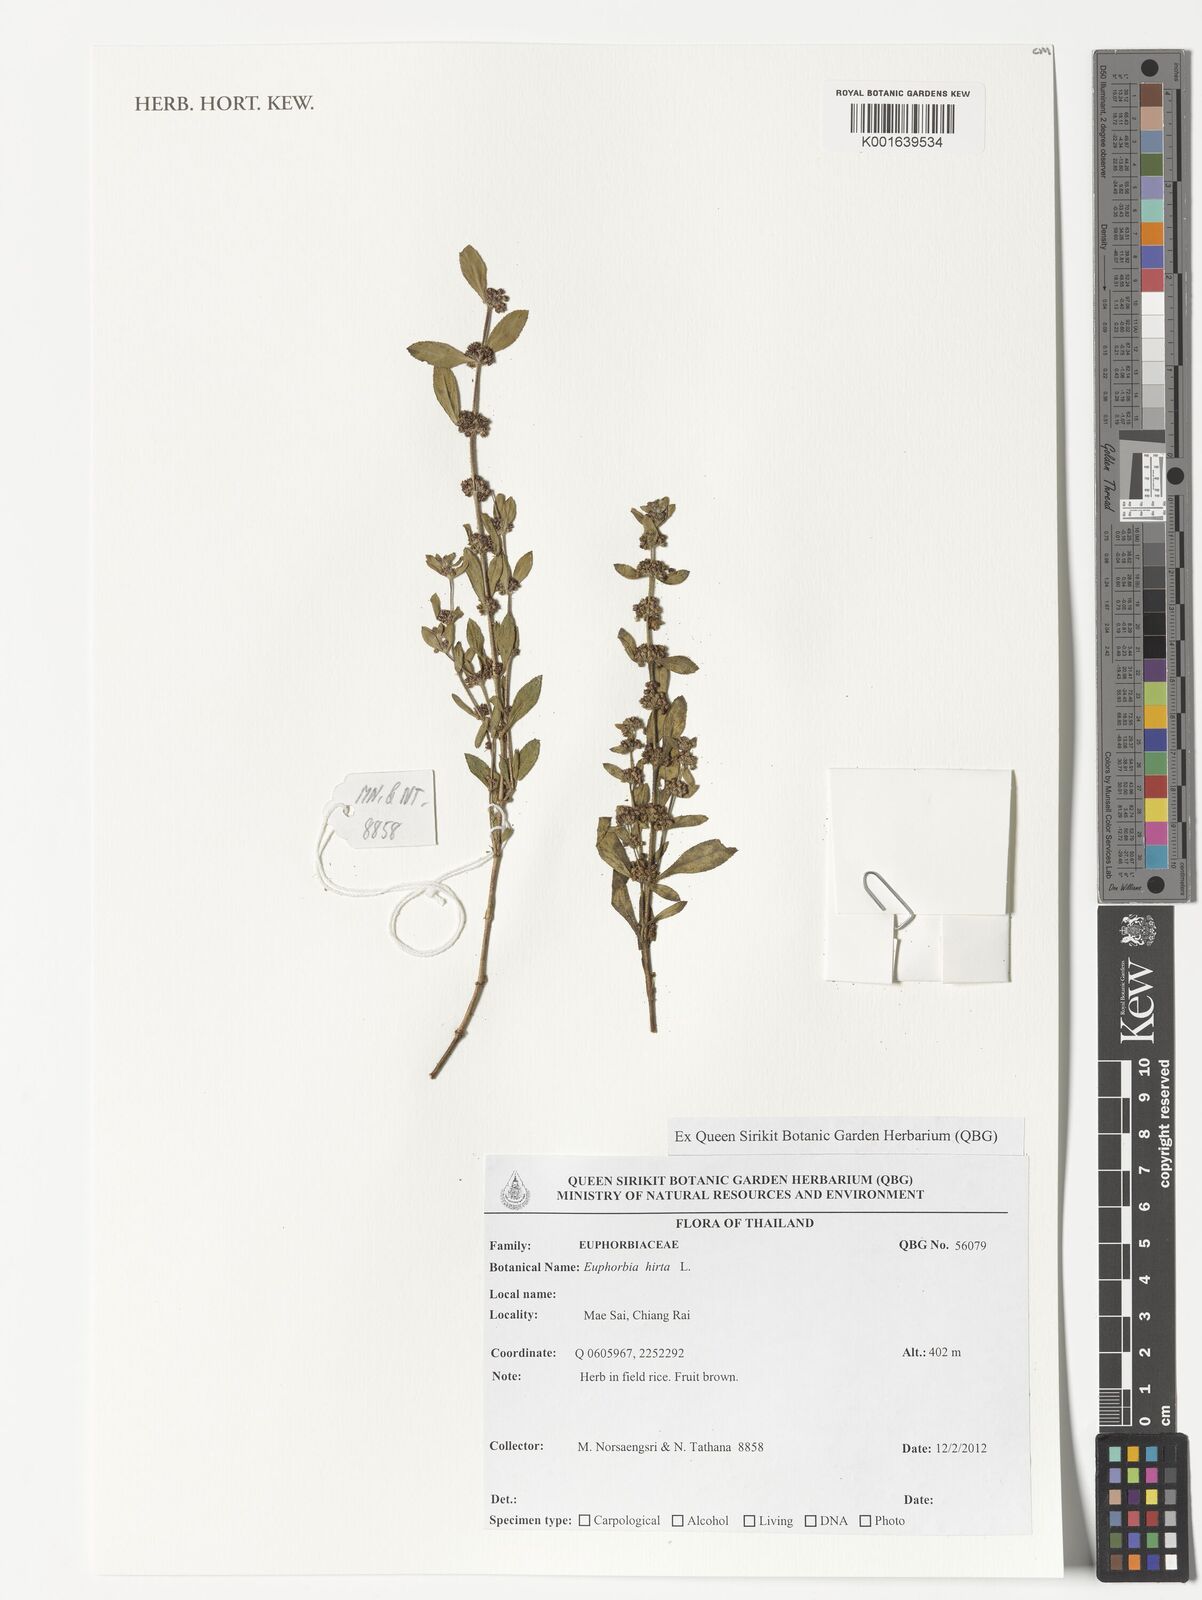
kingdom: Plantae
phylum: Tracheophyta
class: Magnoliopsida
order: Malpighiales
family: Euphorbiaceae
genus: Euphorbia
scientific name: Euphorbia hirta
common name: Pillpod sandmat
